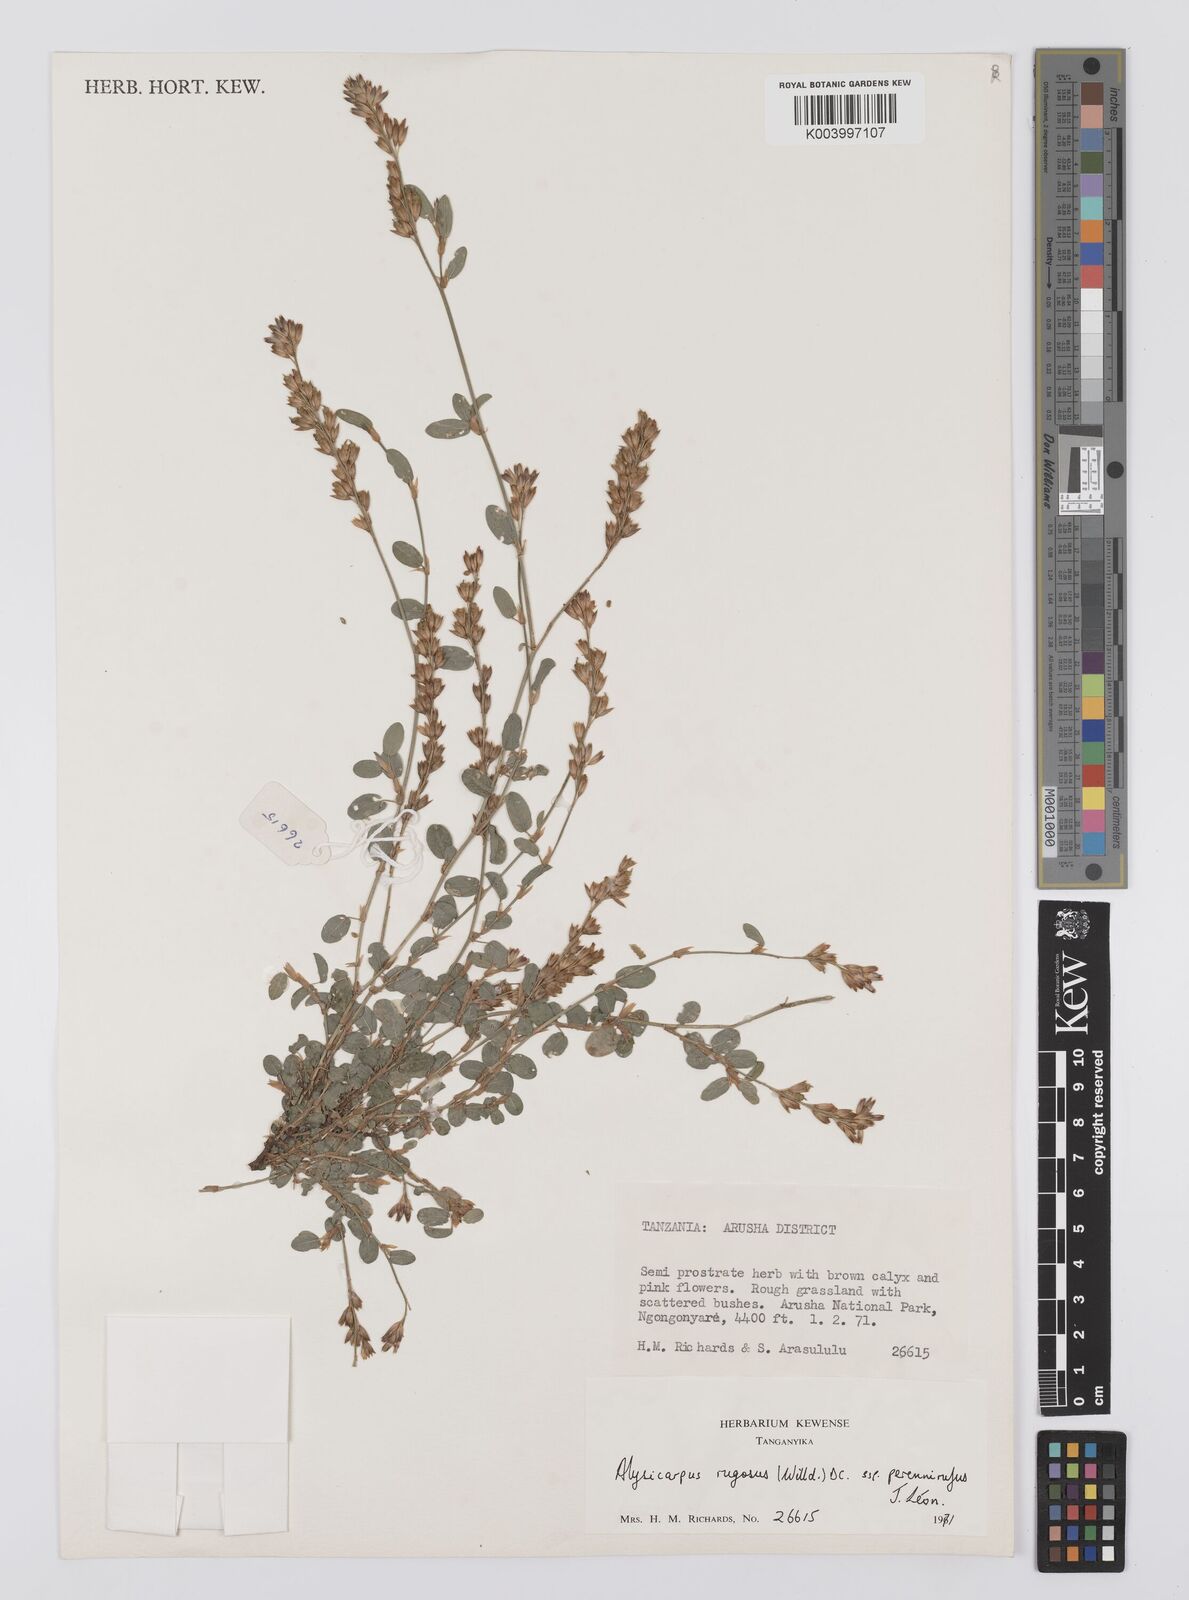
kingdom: Plantae
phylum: Tracheophyta
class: Magnoliopsida
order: Fabales
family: Fabaceae
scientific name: Fabaceae
